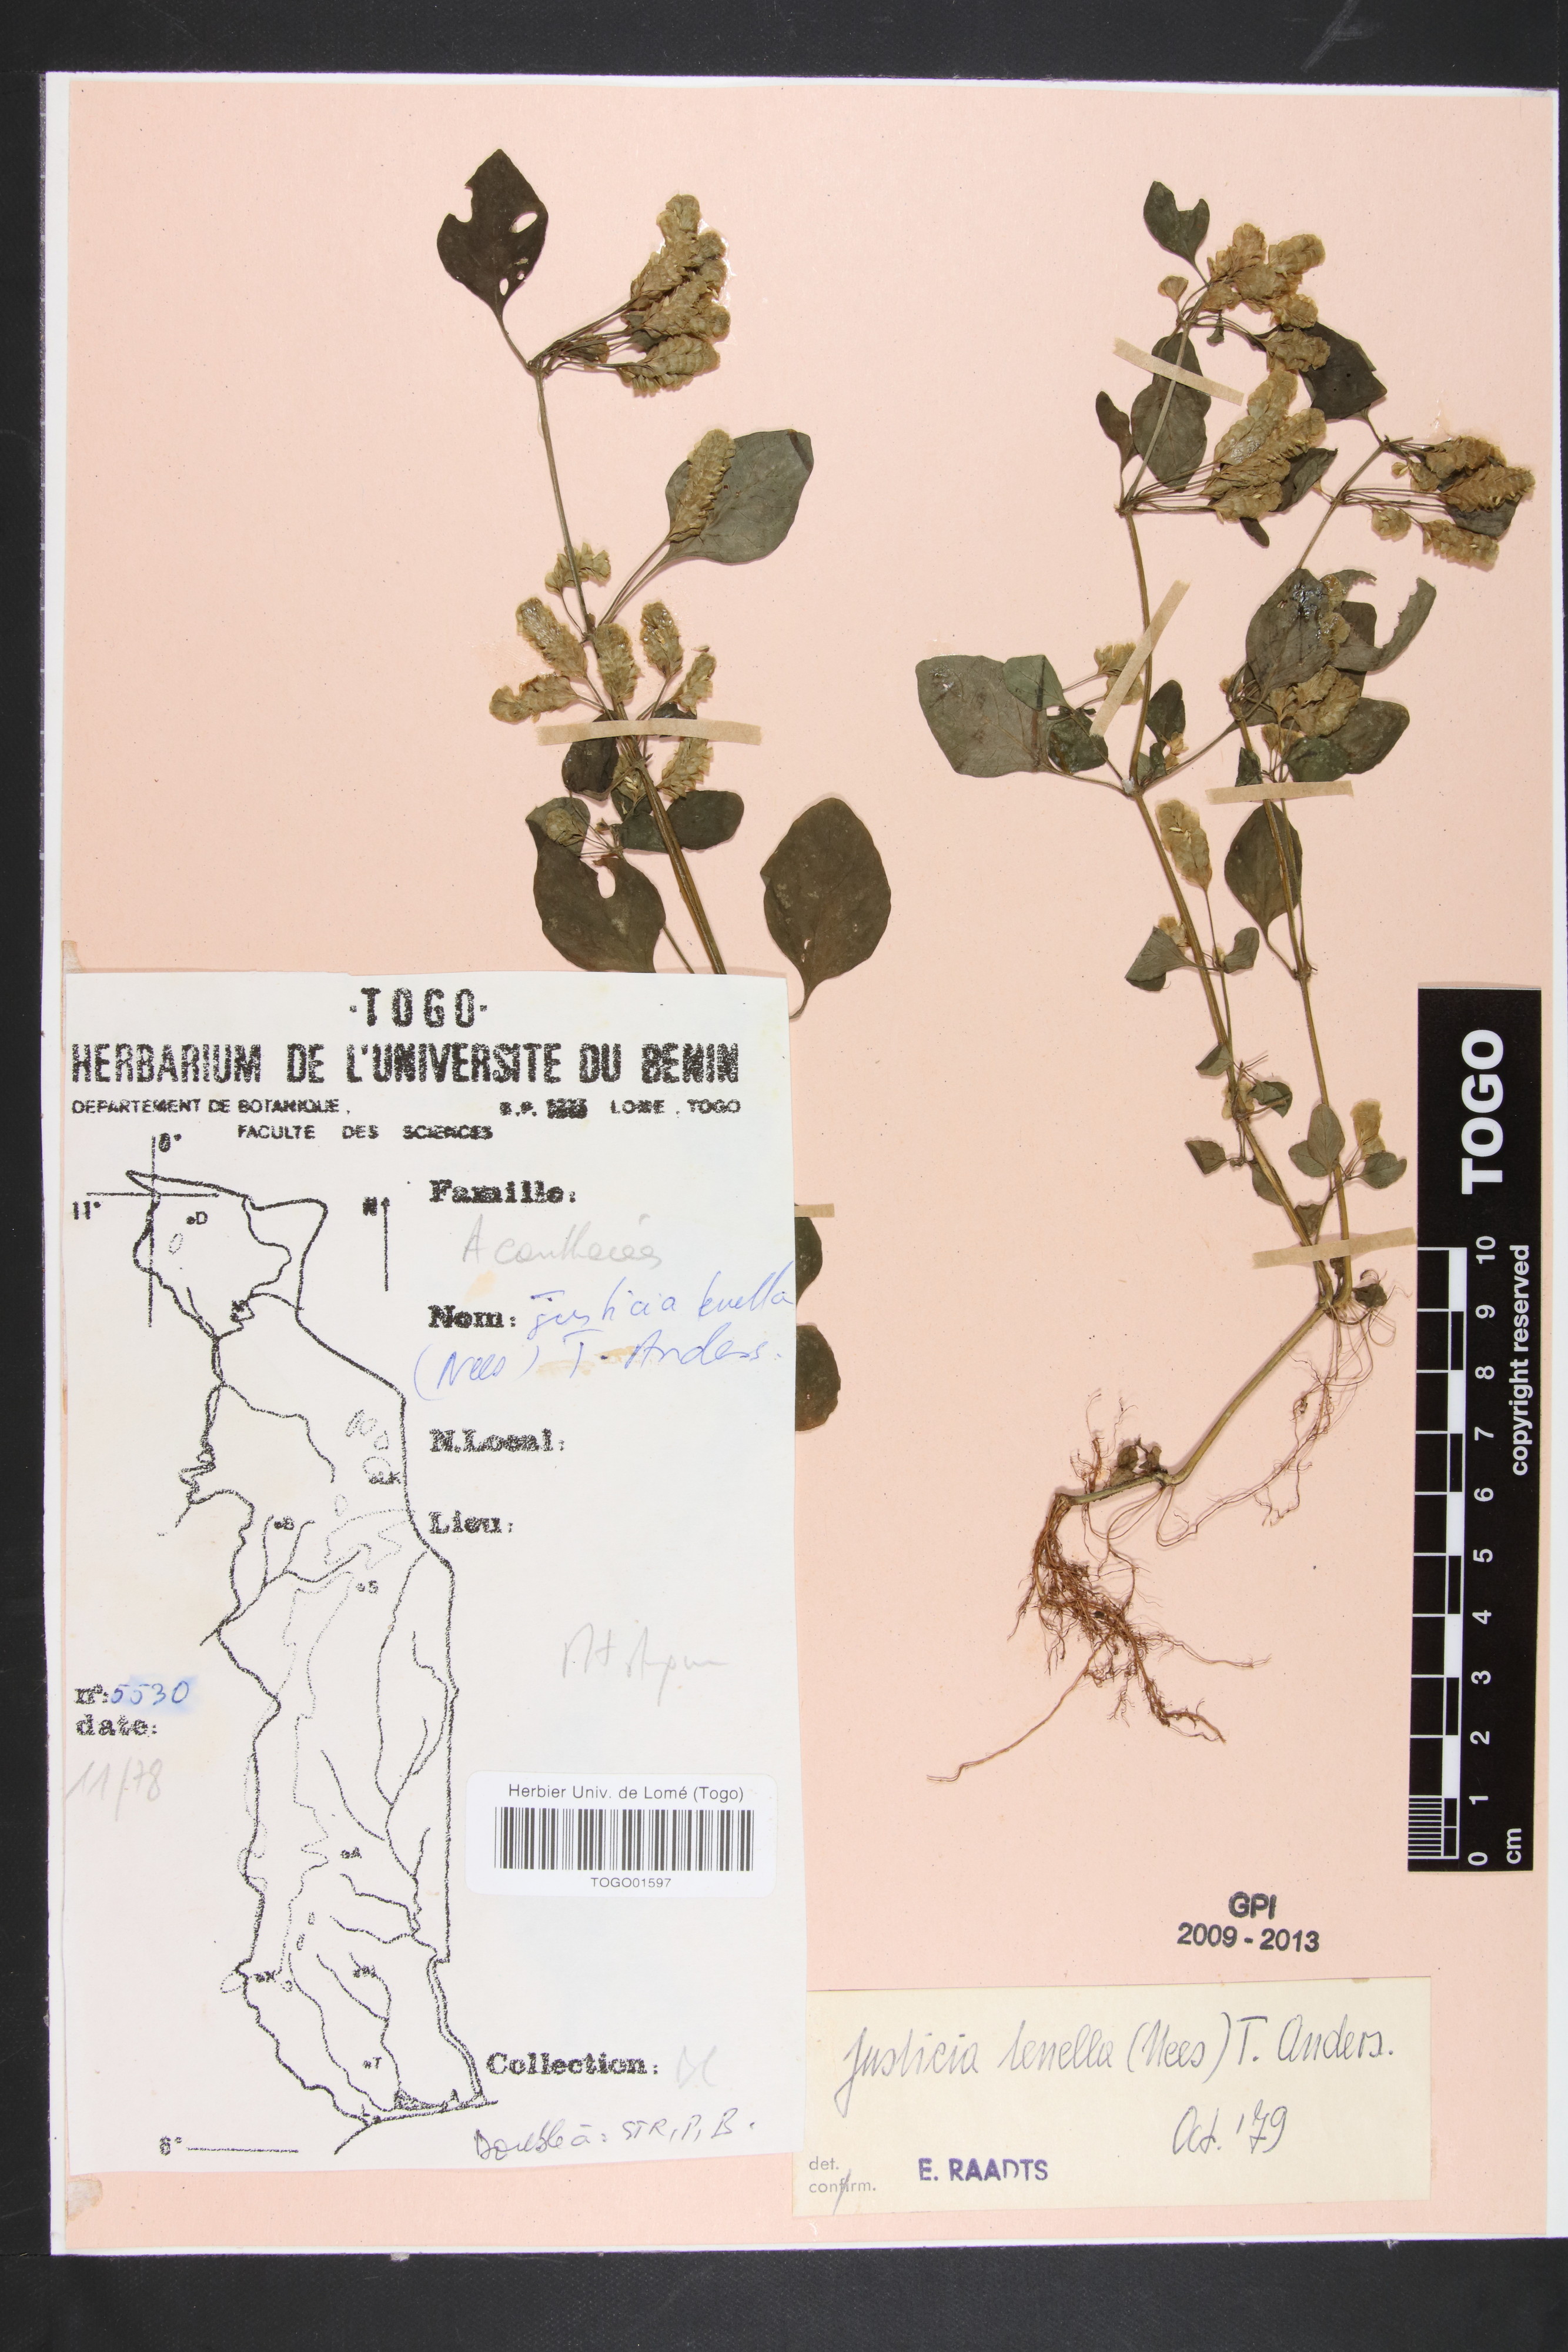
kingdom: Plantae
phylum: Tracheophyta
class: Magnoliopsida
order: Lamiales
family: Acanthaceae
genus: Anisostachya
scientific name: Anisostachya tenella
